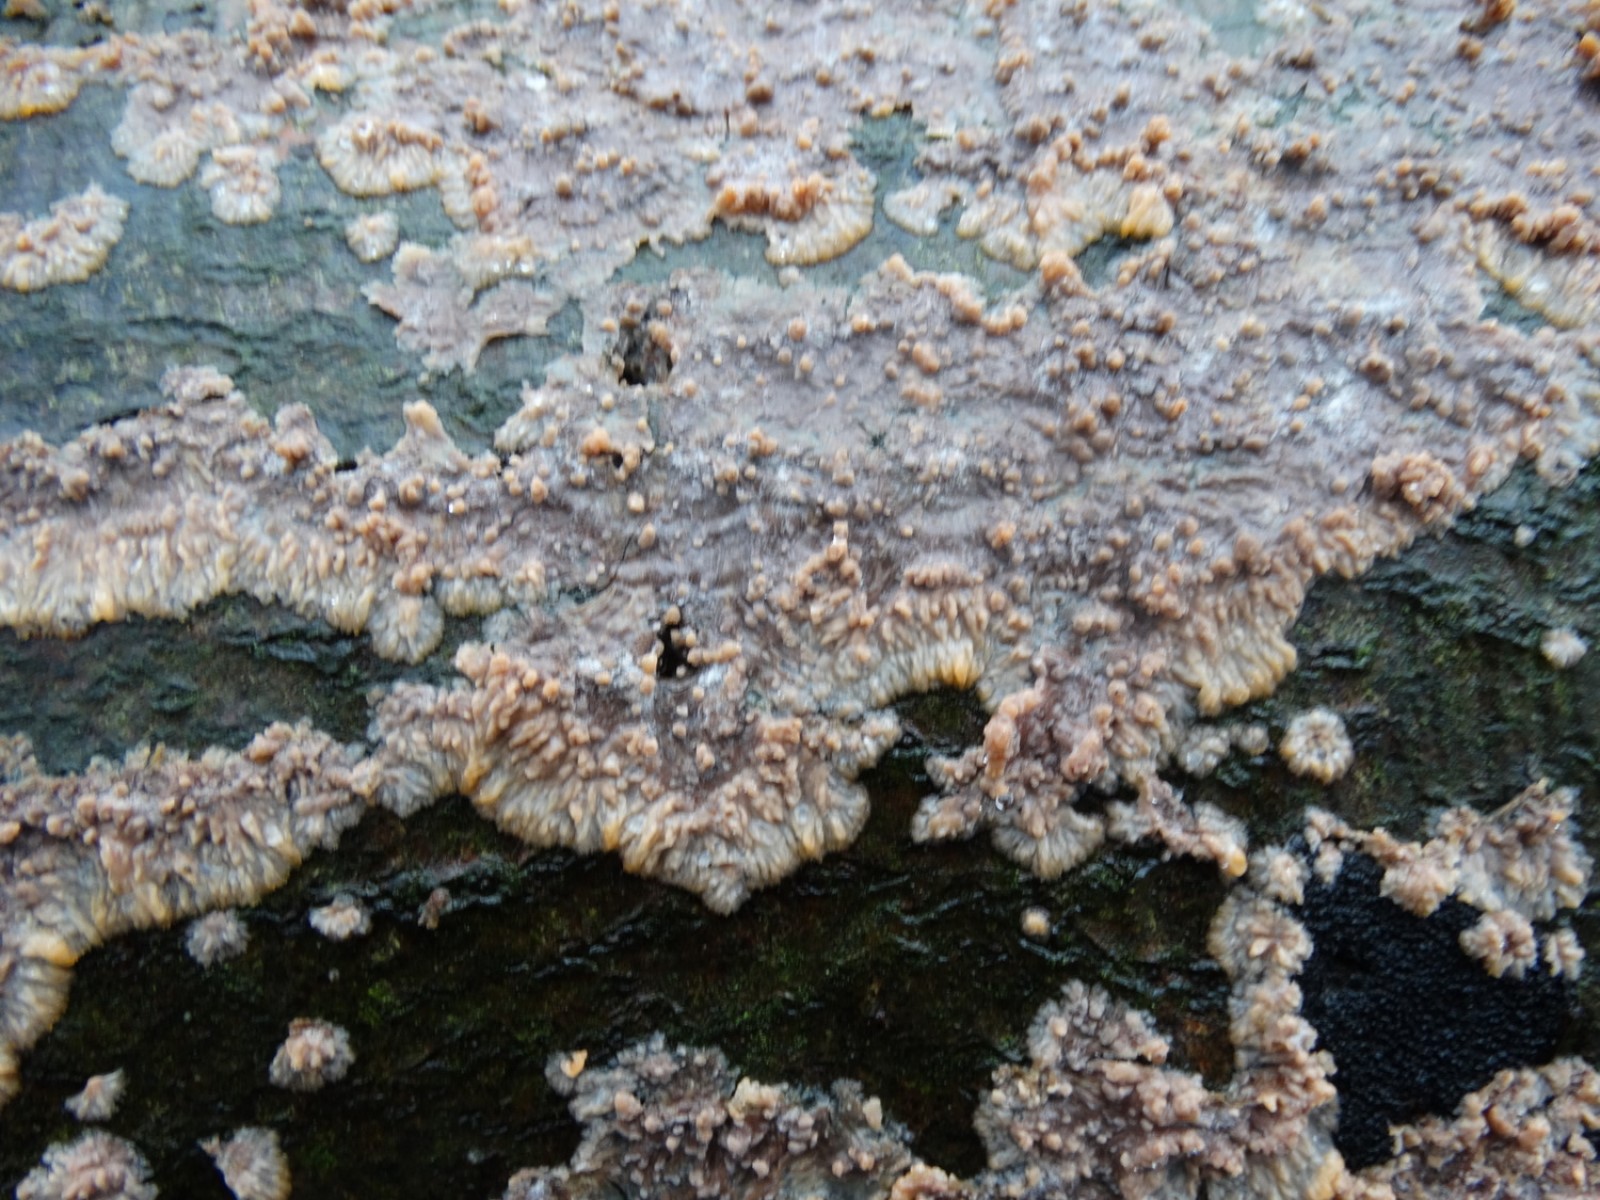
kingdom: Fungi
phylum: Basidiomycota
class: Agaricomycetes
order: Polyporales
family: Meruliaceae
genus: Phlebia
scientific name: Phlebia radiata
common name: stråle-åresvamp
